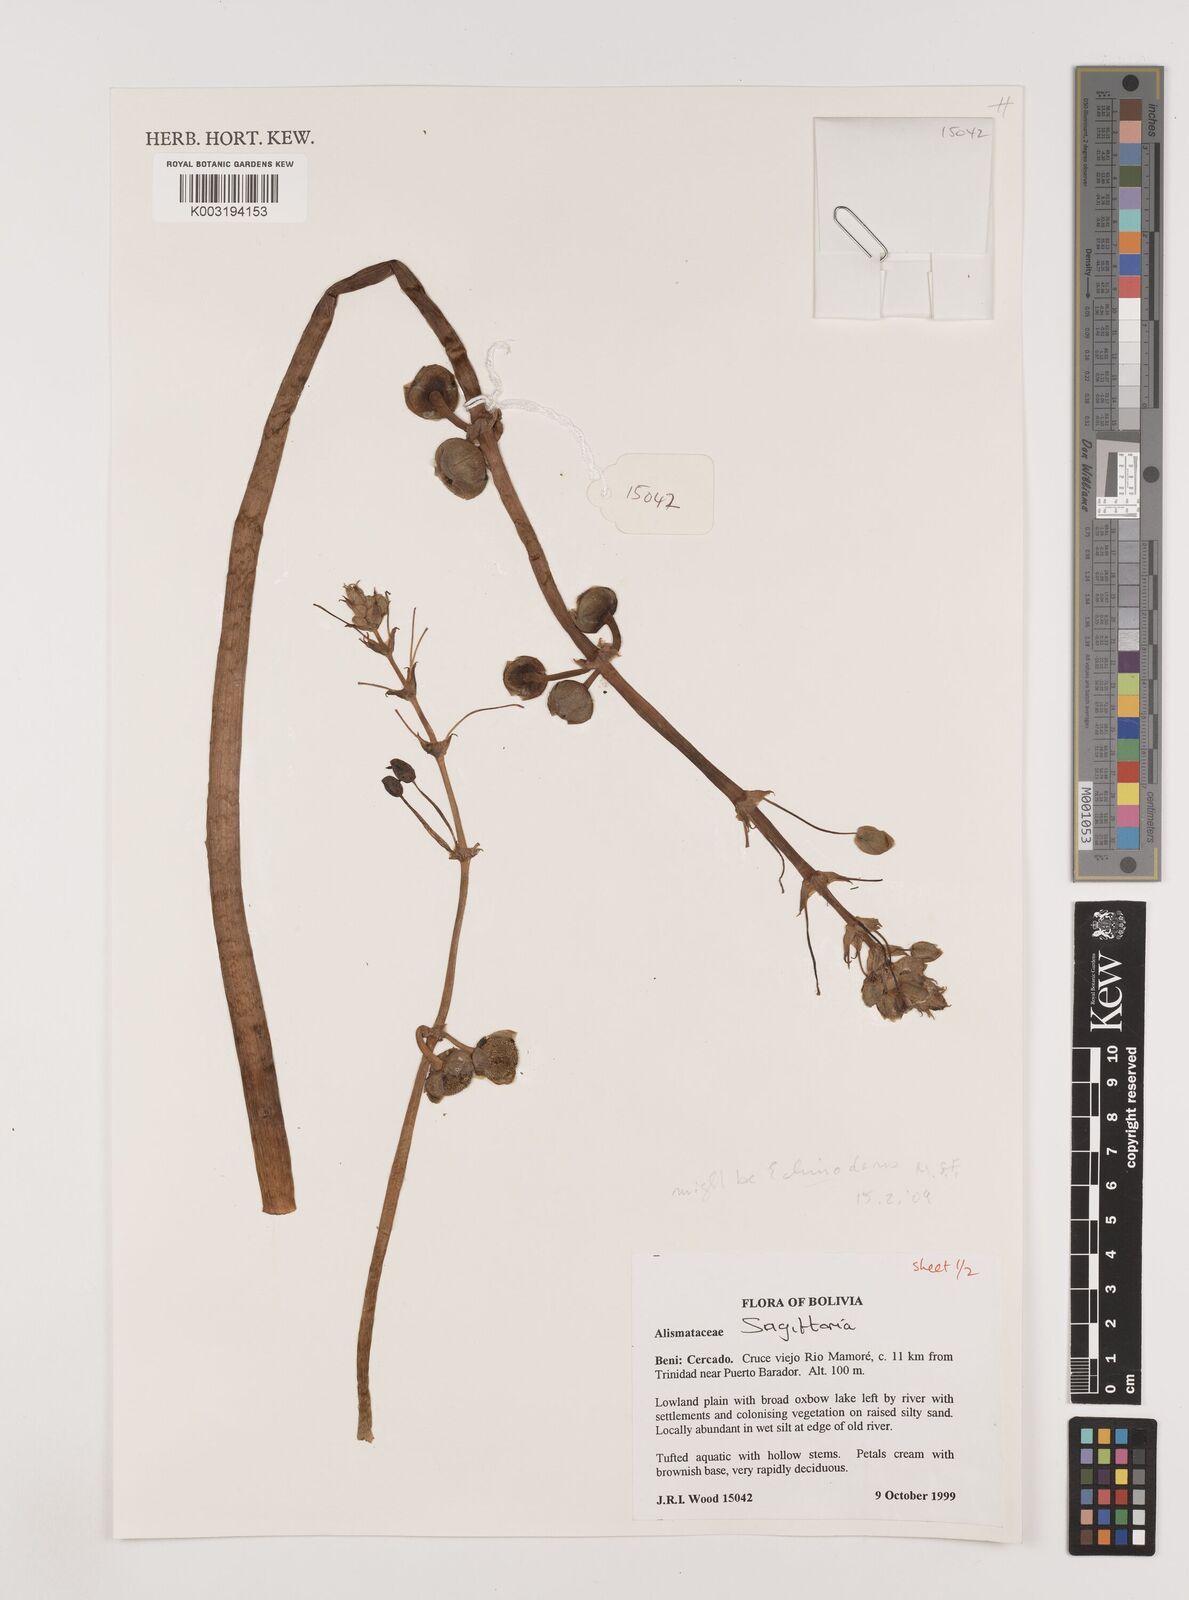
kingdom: Plantae
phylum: Tracheophyta
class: Liliopsida
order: Alismatales
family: Alismataceae
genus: Sagittaria
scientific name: Sagittaria
